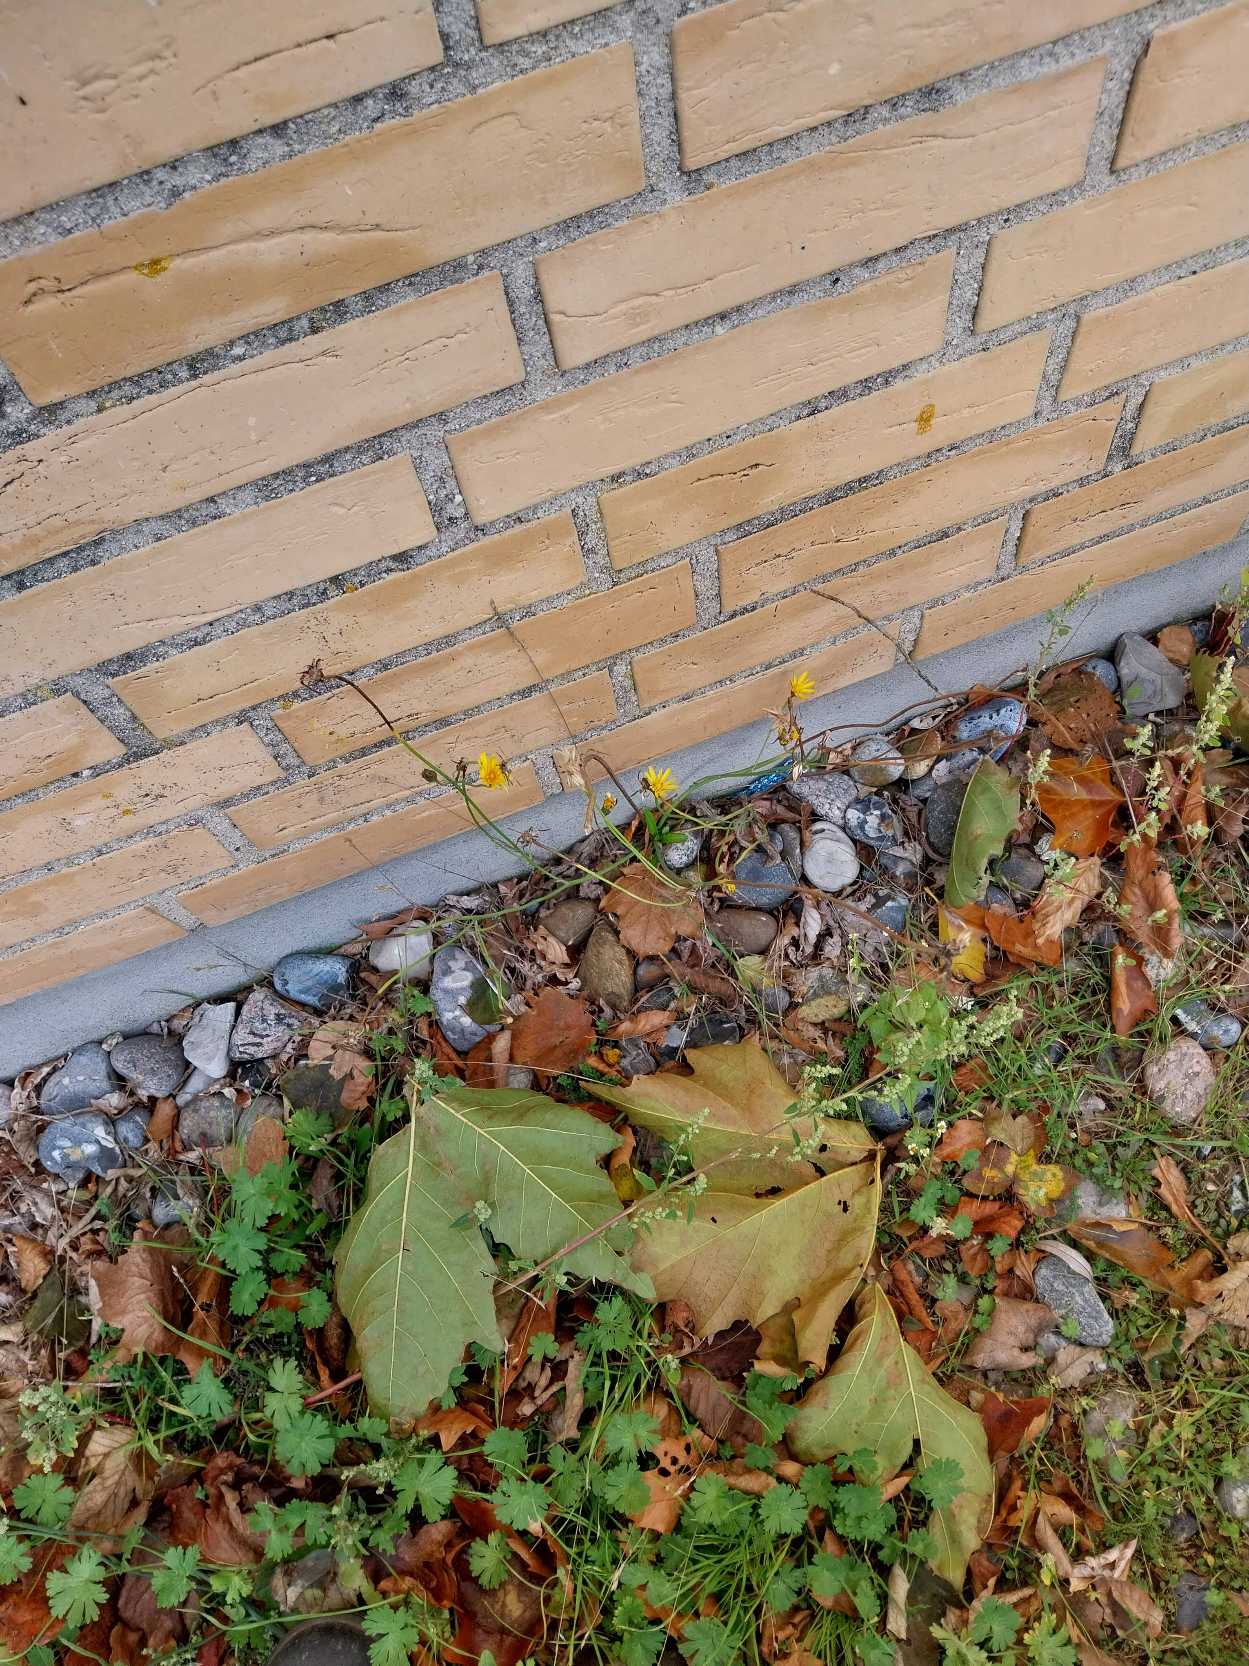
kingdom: Plantae
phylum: Tracheophyta
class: Magnoliopsida
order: Asterales
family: Asteraceae
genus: Hypochaeris
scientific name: Hypochaeris radicata
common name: Almindelig kongepen
